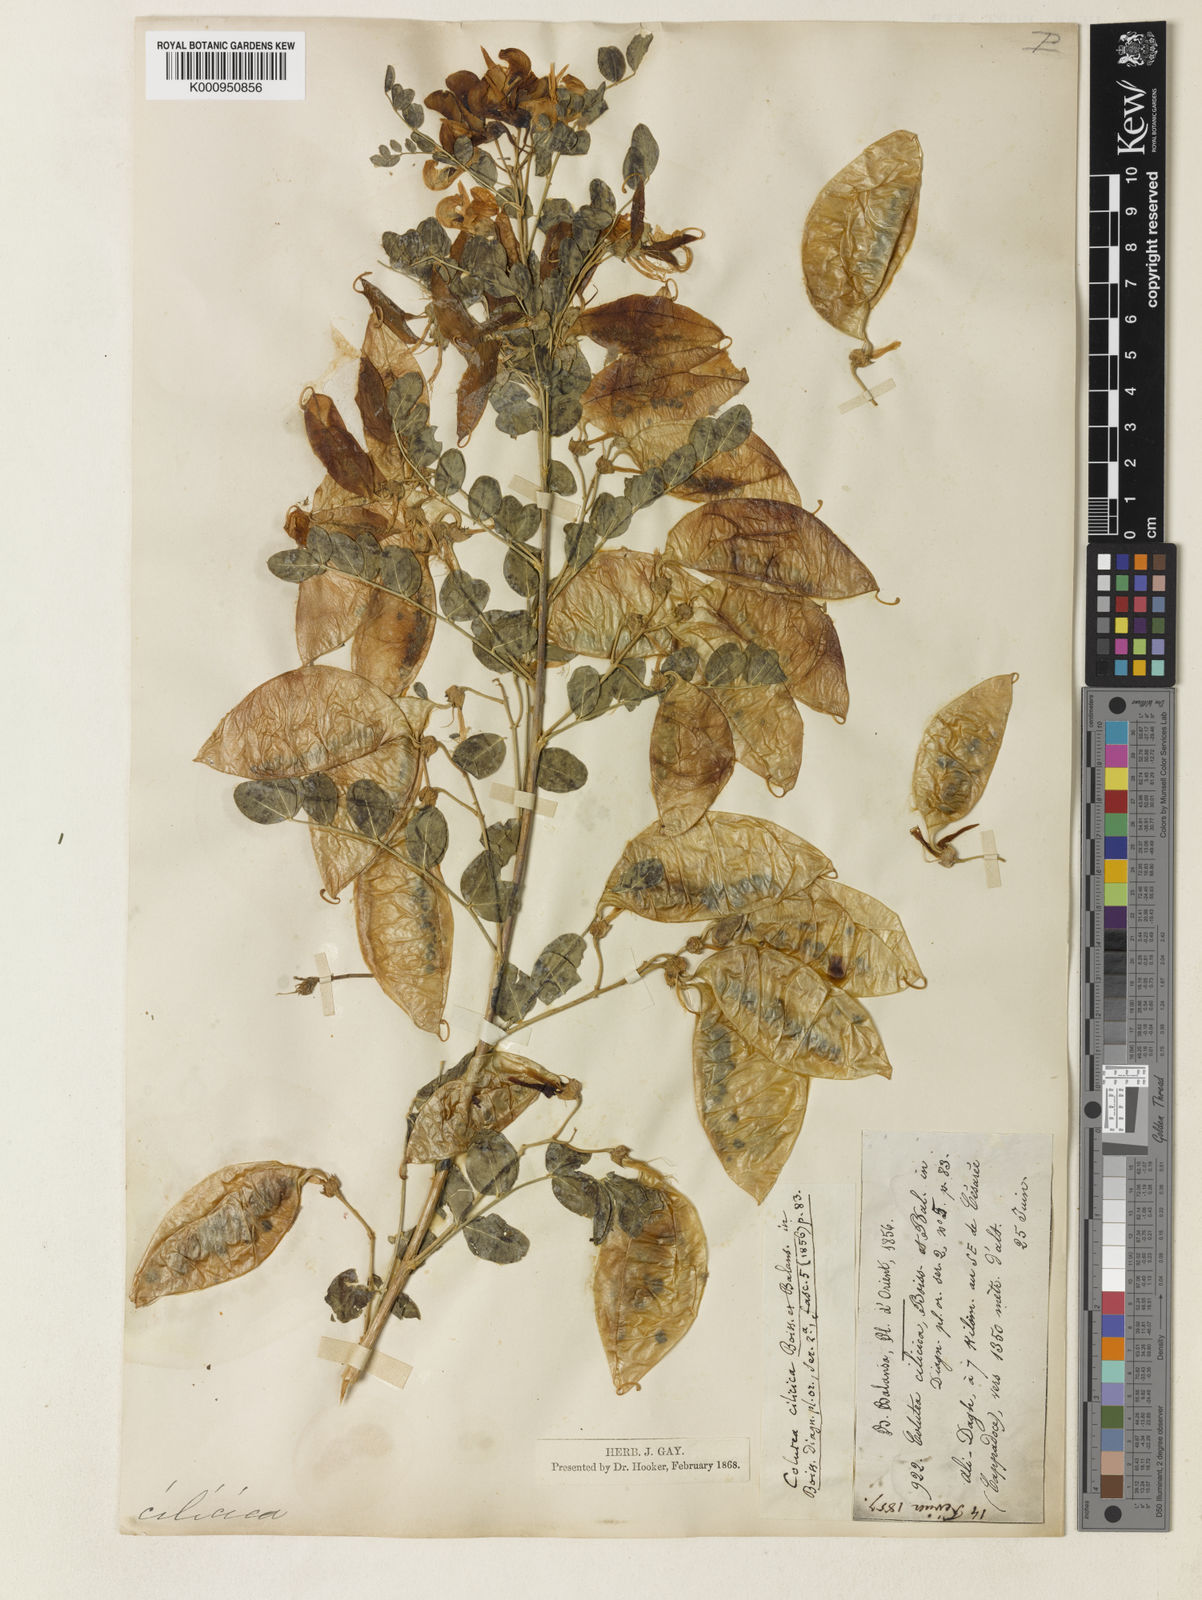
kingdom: Plantae
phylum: Tracheophyta
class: Magnoliopsida
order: Fabales
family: Fabaceae
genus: Colutea
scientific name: Colutea cilicica
